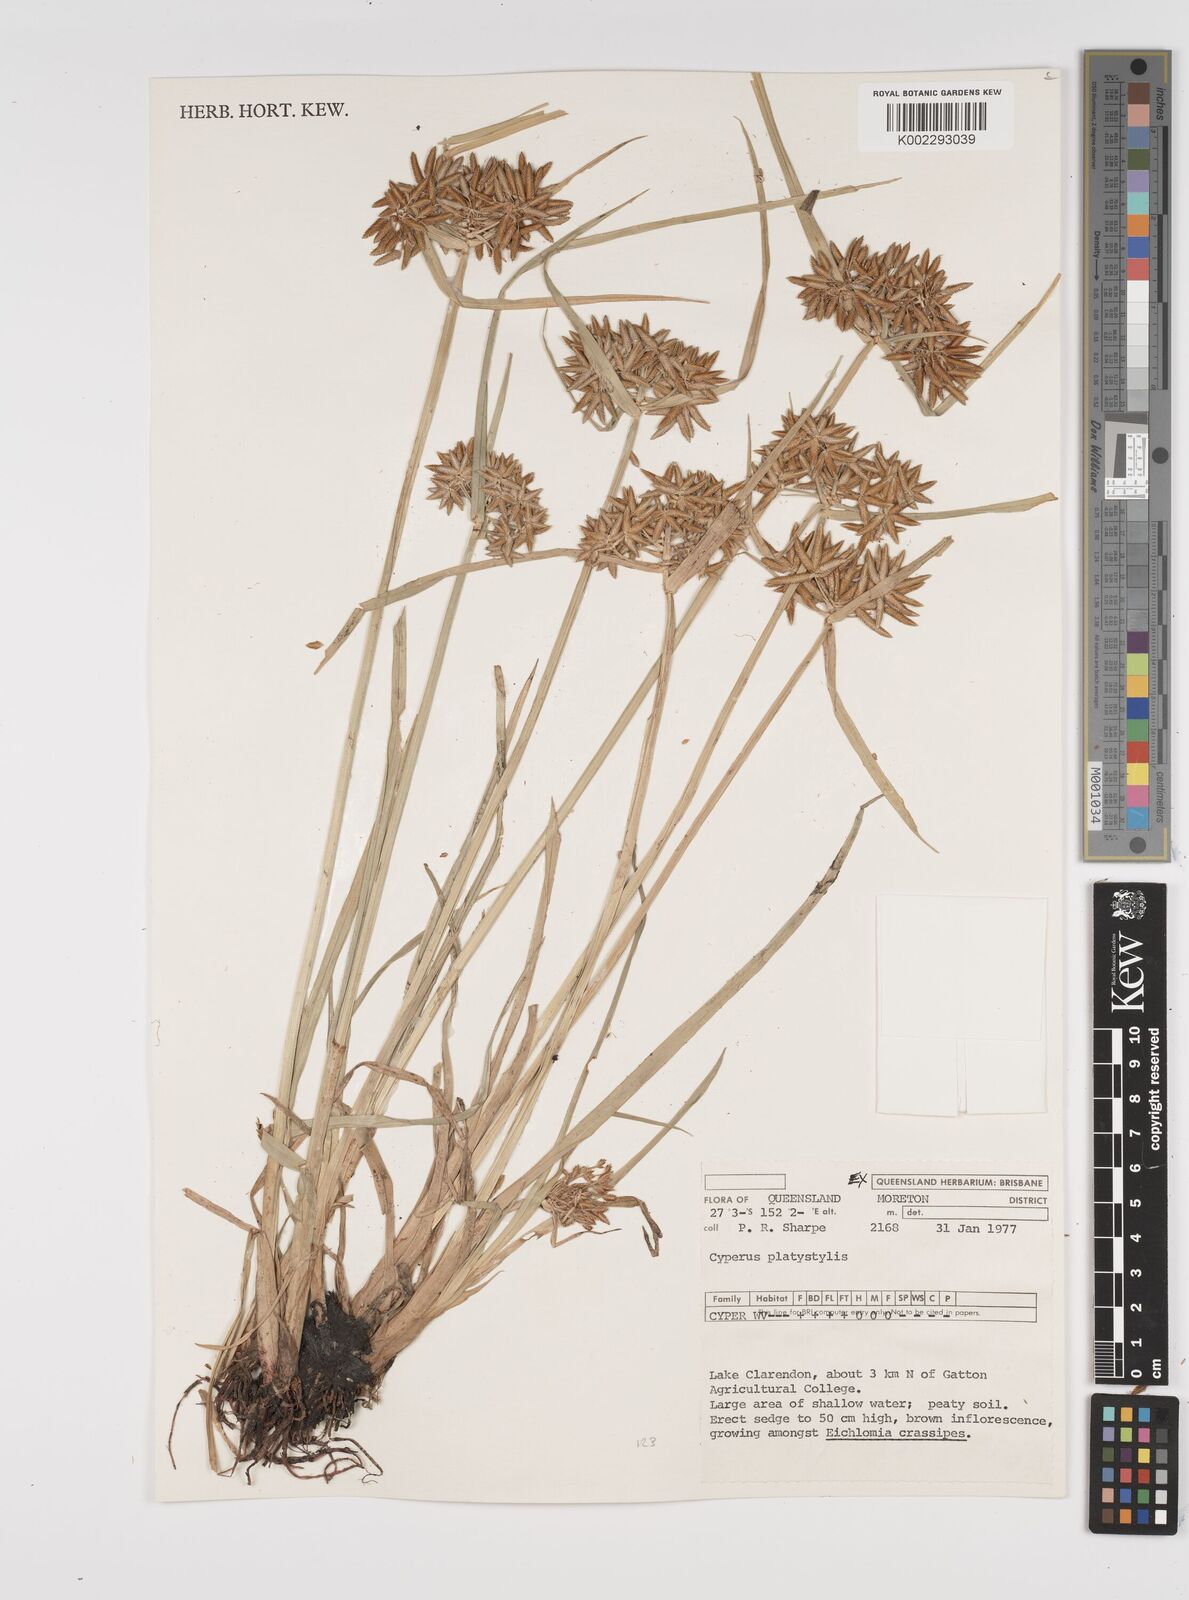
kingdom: Plantae
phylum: Tracheophyta
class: Liliopsida
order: Poales
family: Cyperaceae
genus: Cyperus
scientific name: Cyperus platystylis
